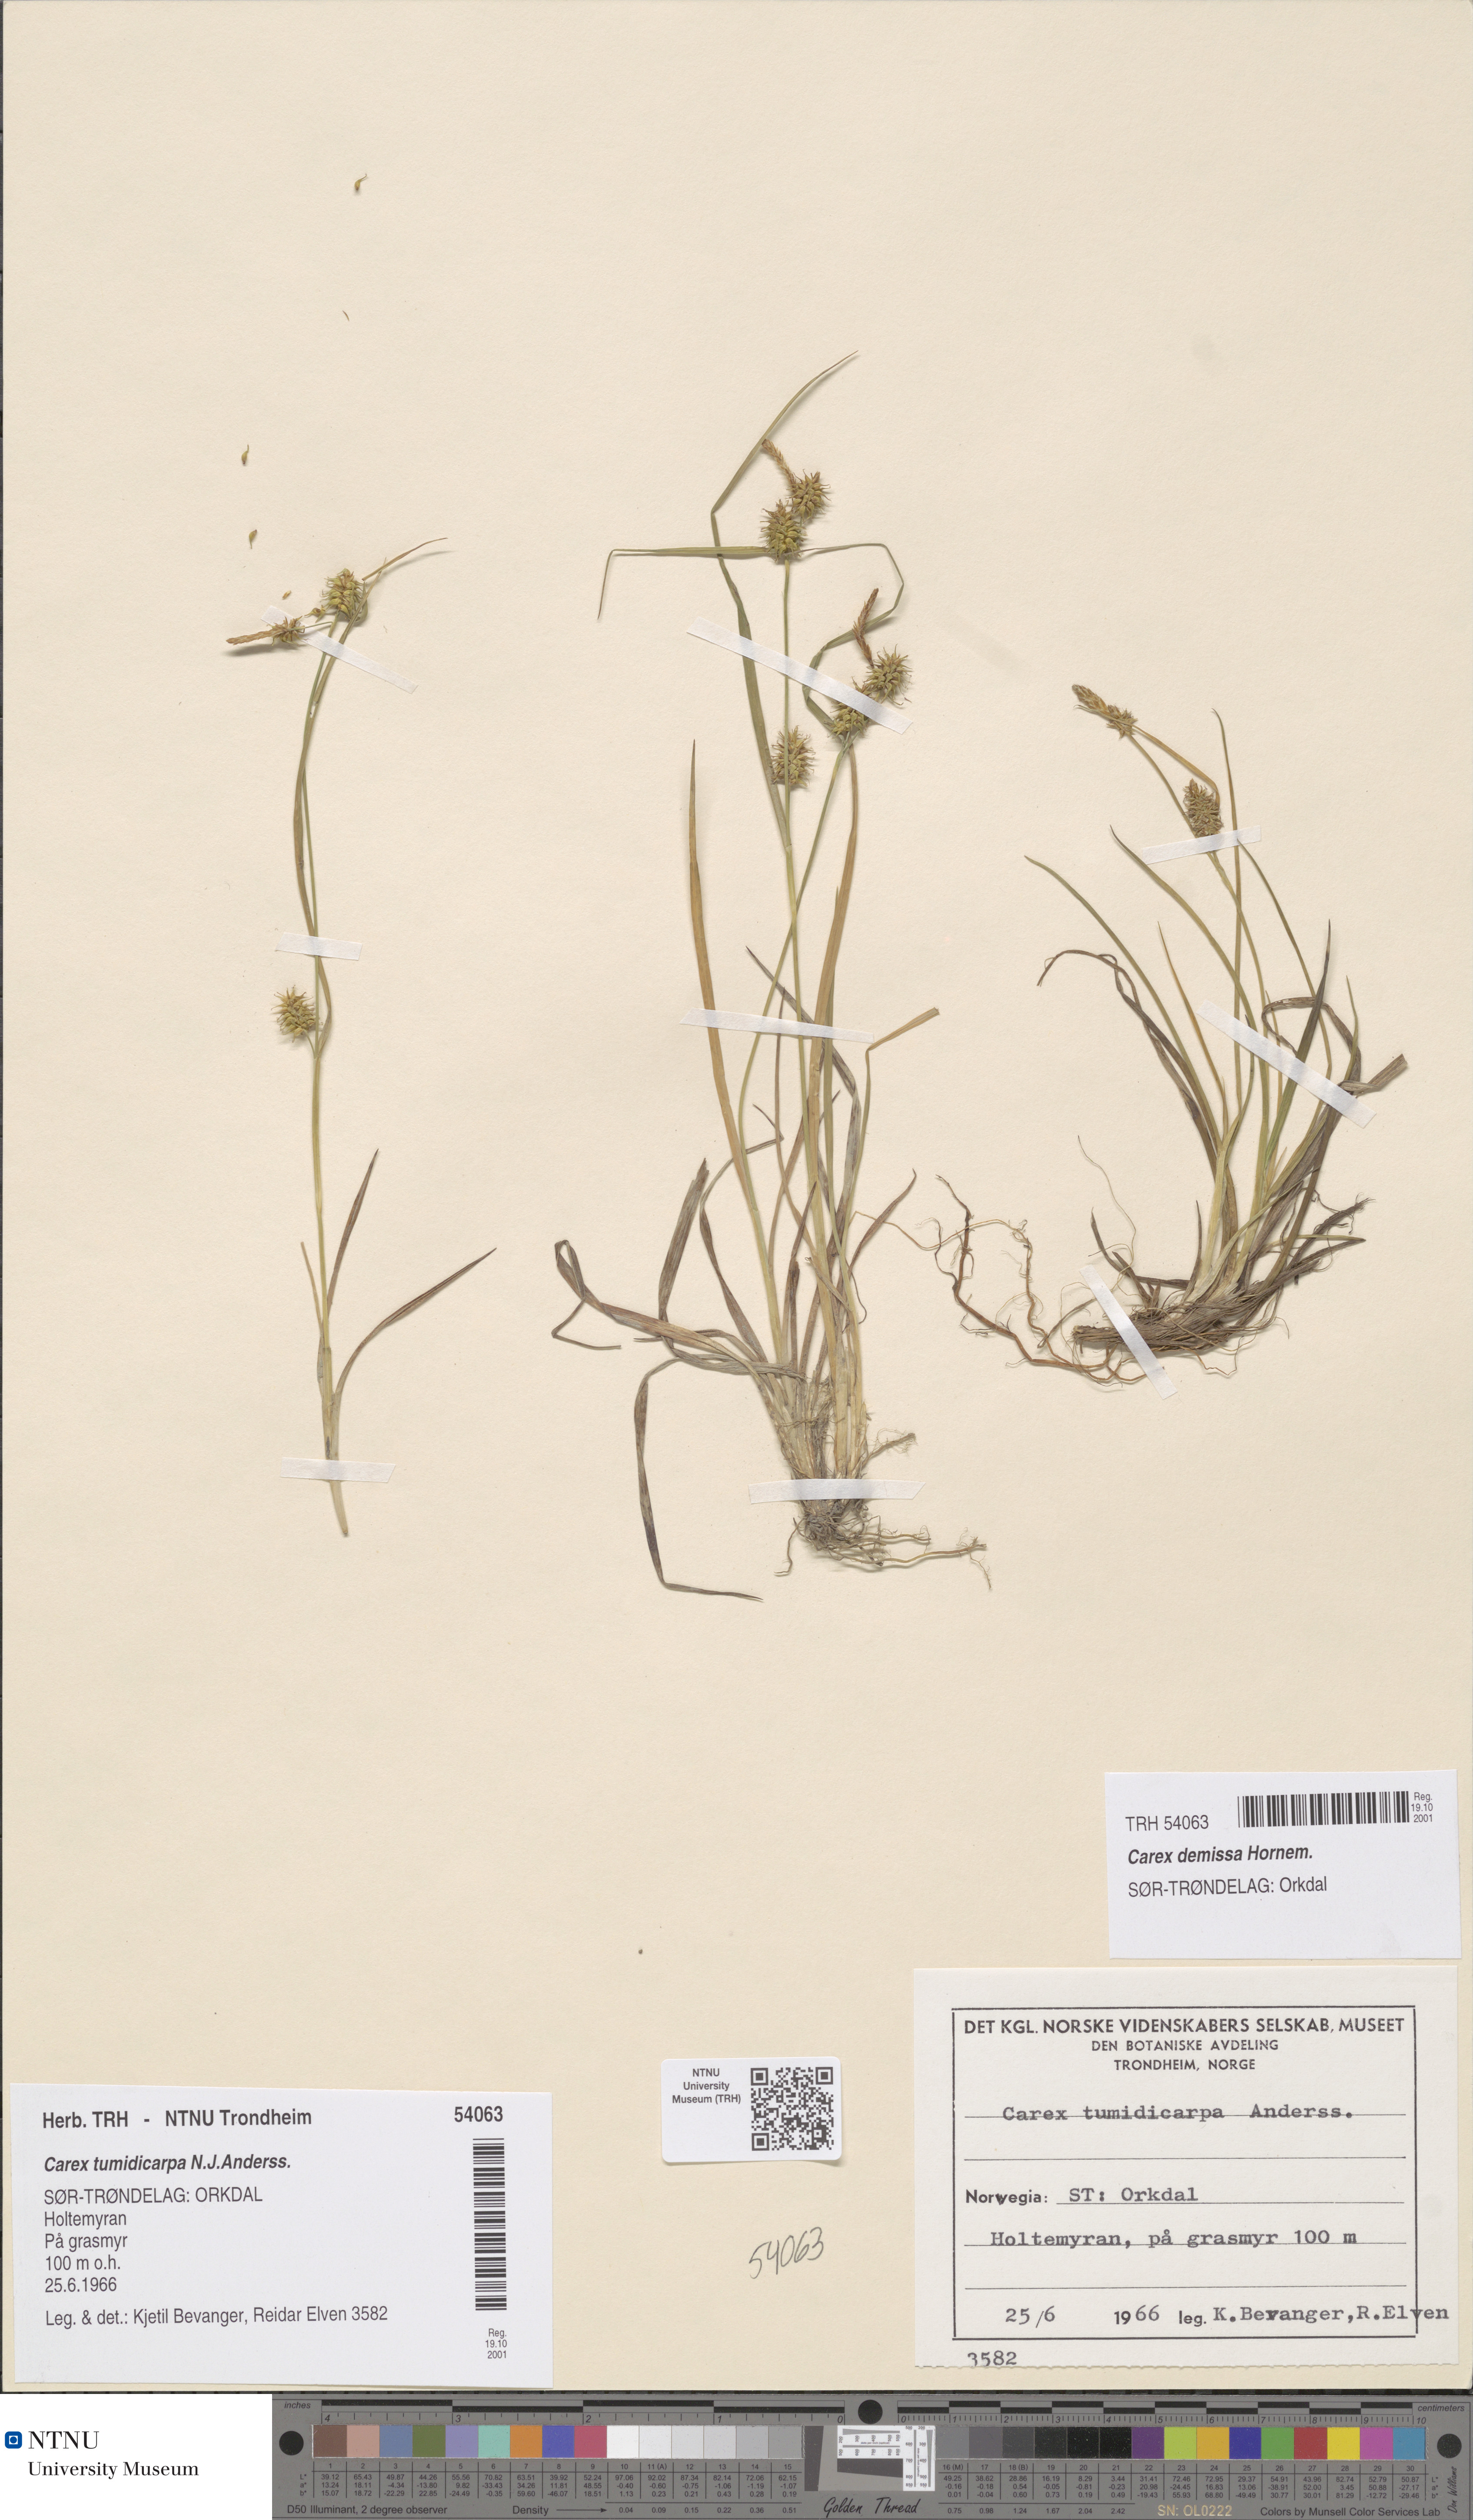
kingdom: Plantae
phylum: Tracheophyta
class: Liliopsida
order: Poales
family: Cyperaceae
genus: Carex
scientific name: Carex demissa
